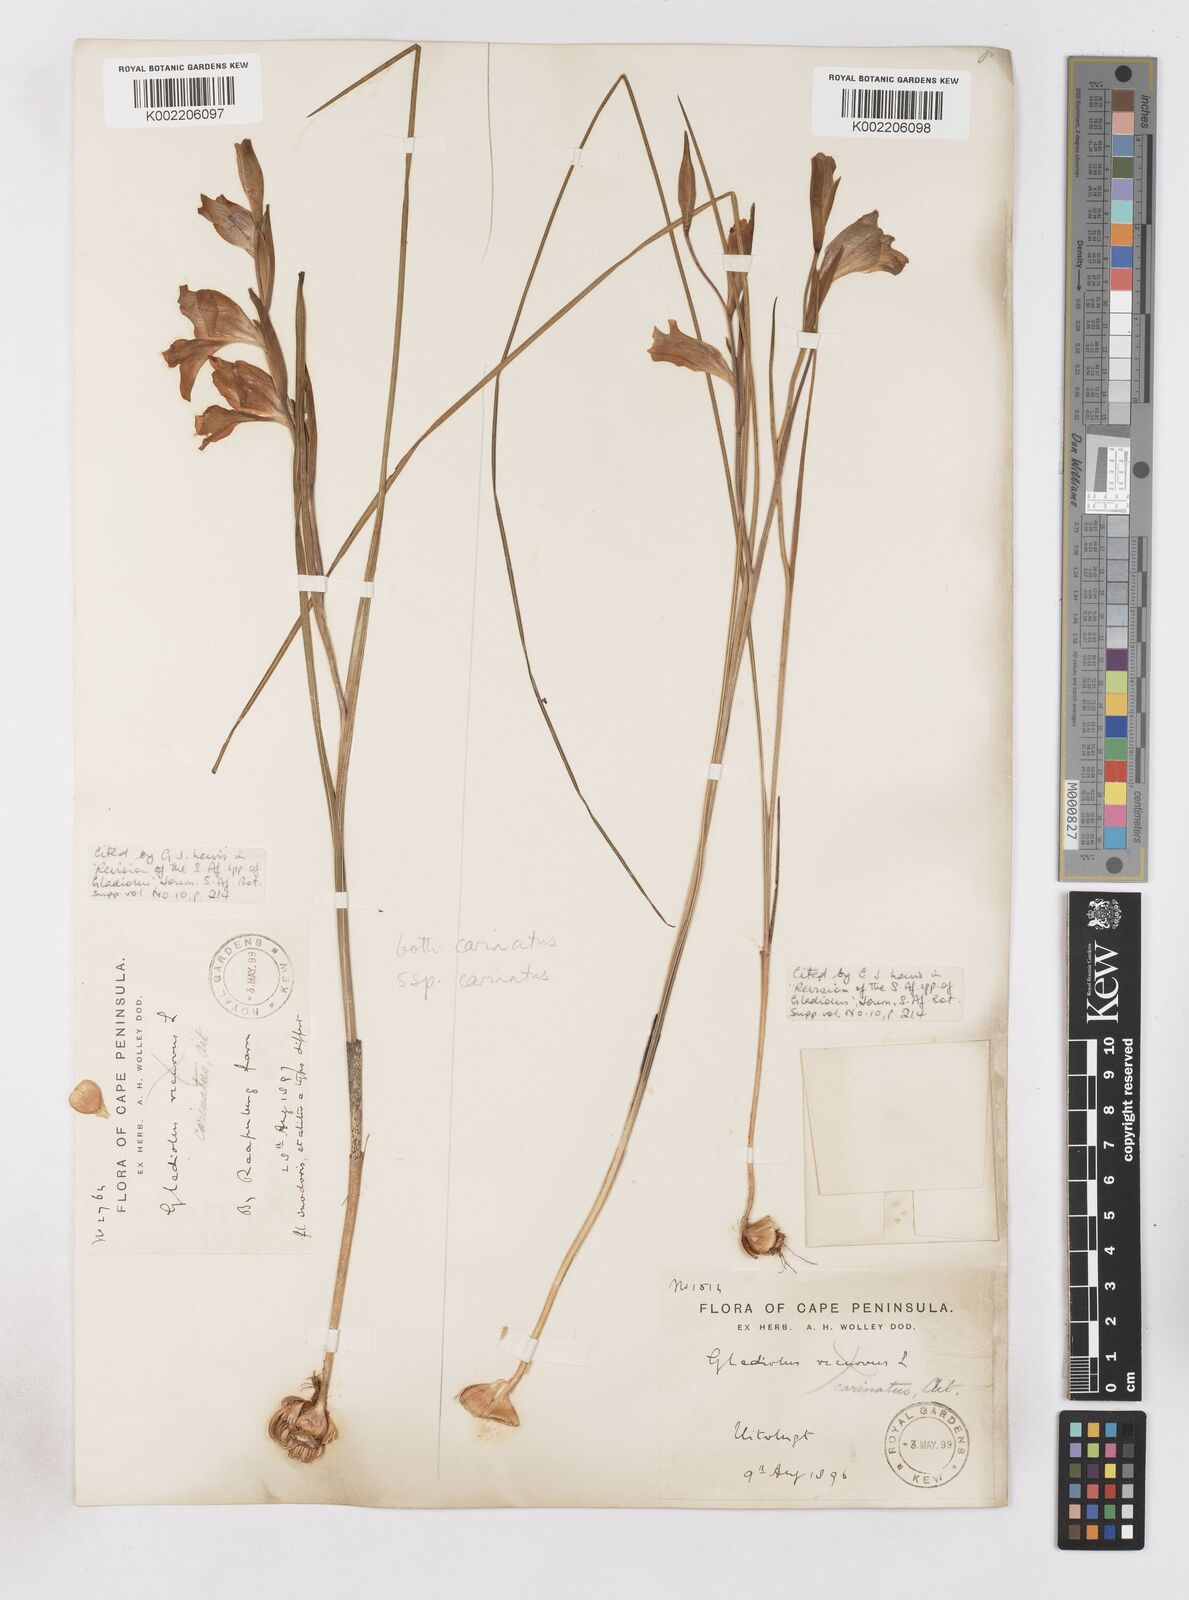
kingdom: Plantae
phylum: Tracheophyta
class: Liliopsida
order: Asparagales
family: Iridaceae
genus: Gladiolus
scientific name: Gladiolus carinatus
